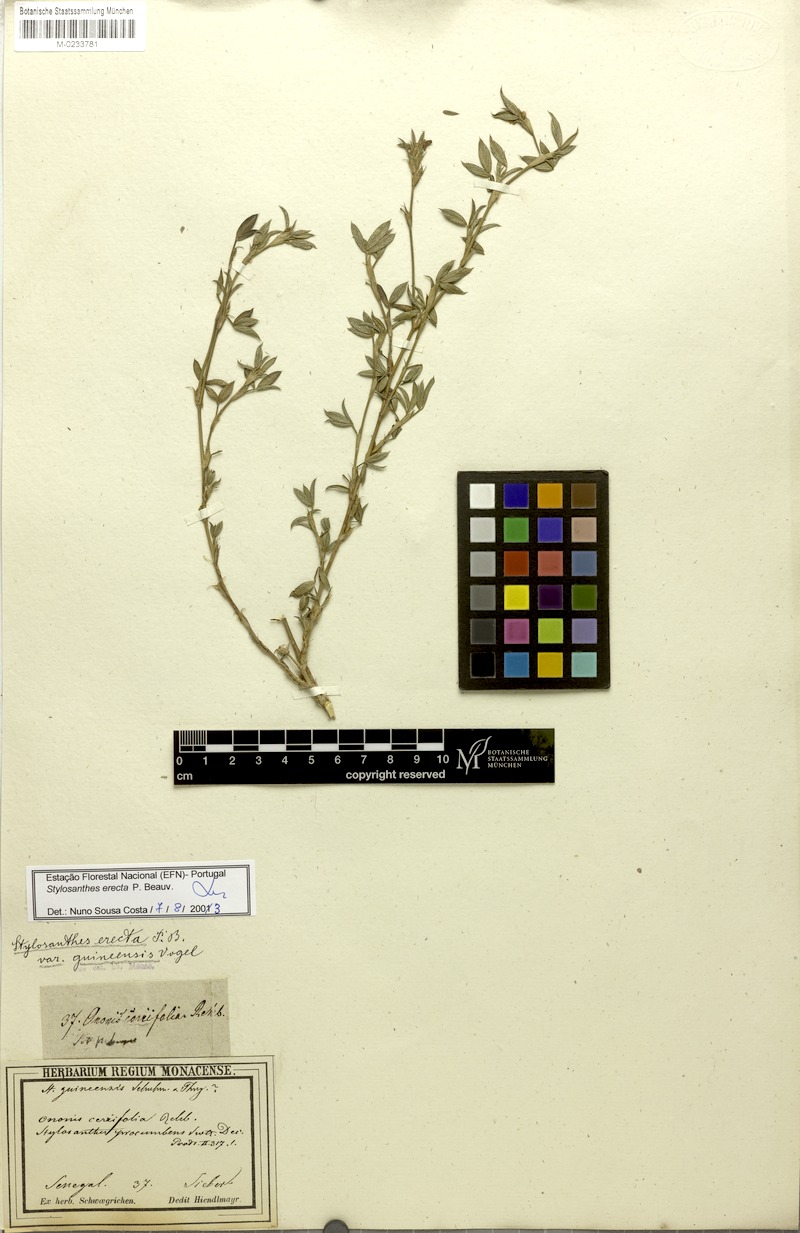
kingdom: Plantae
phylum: Tracheophyta
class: Magnoliopsida
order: Fabales
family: Fabaceae
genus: Stylosanthes
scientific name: Stylosanthes erecta
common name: Nigerian stylo
